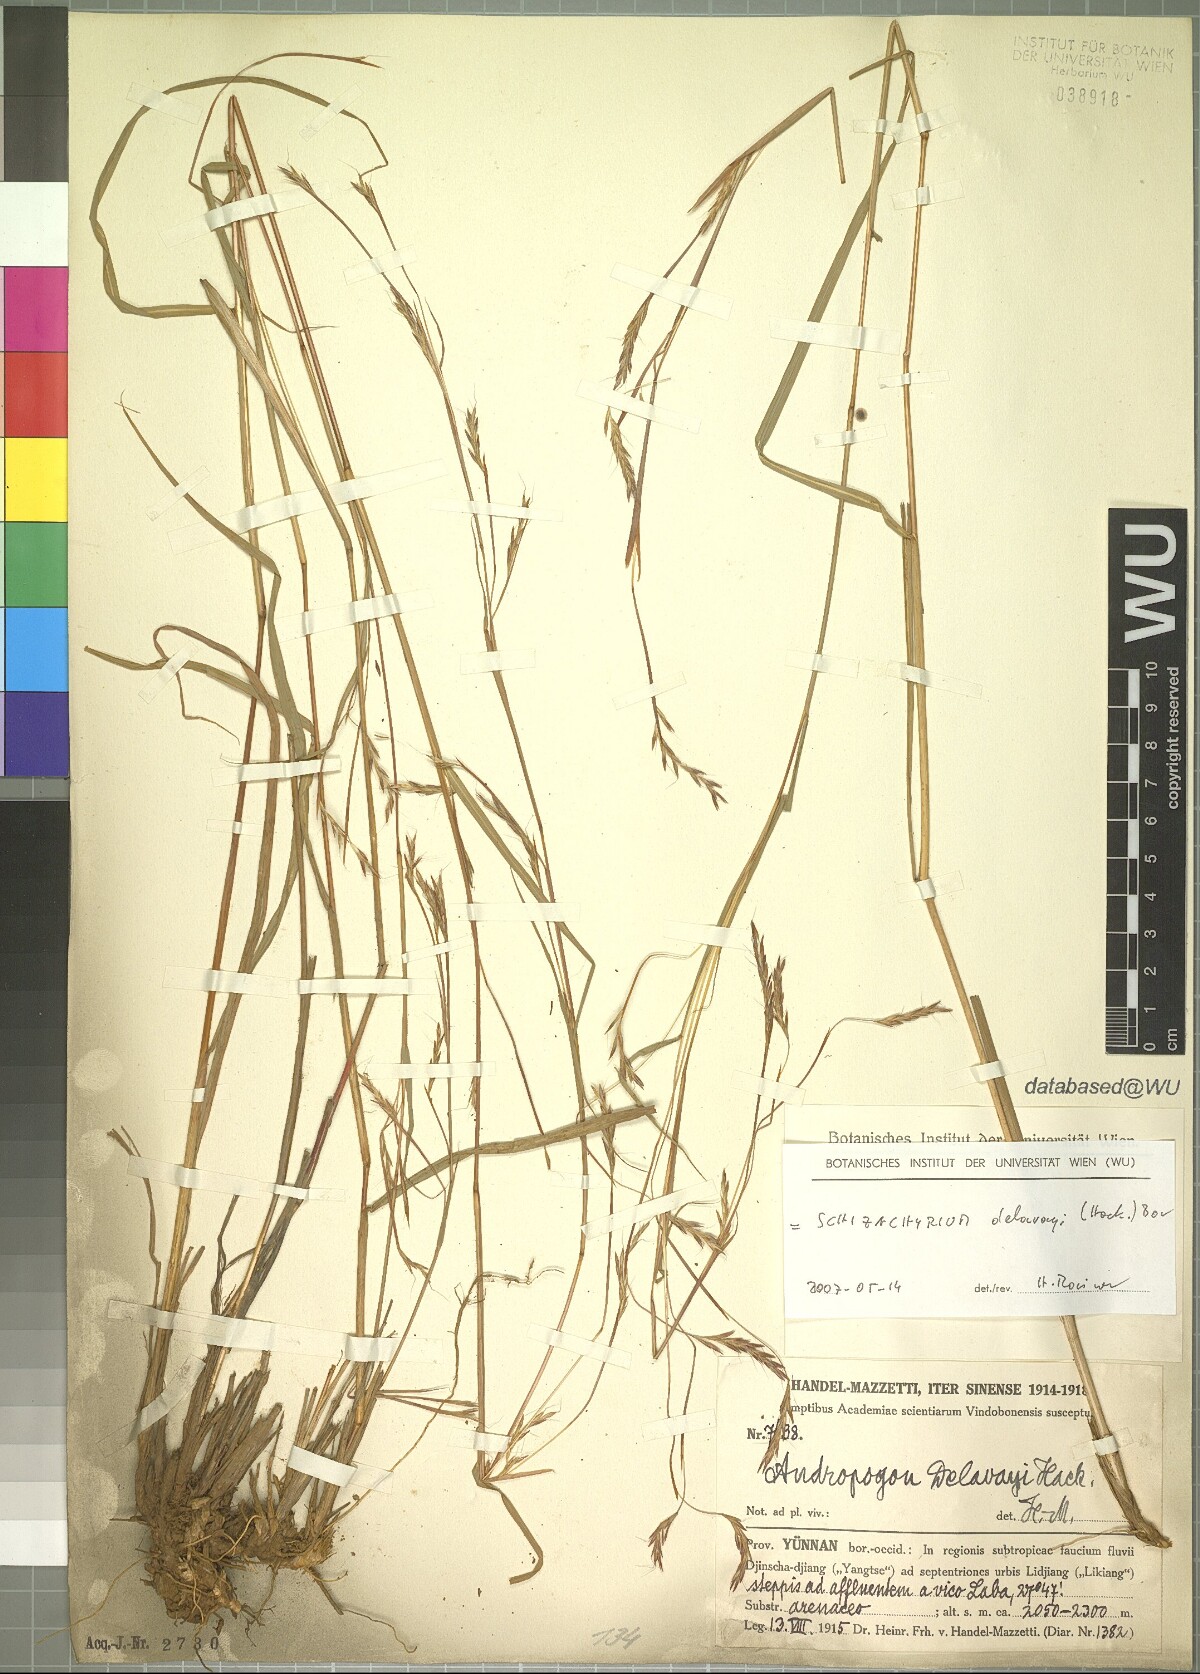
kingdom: Plantae
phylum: Tracheophyta
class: Liliopsida
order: Poales
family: Poaceae
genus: Schizachyrium
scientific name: Schizachyrium delavayi
